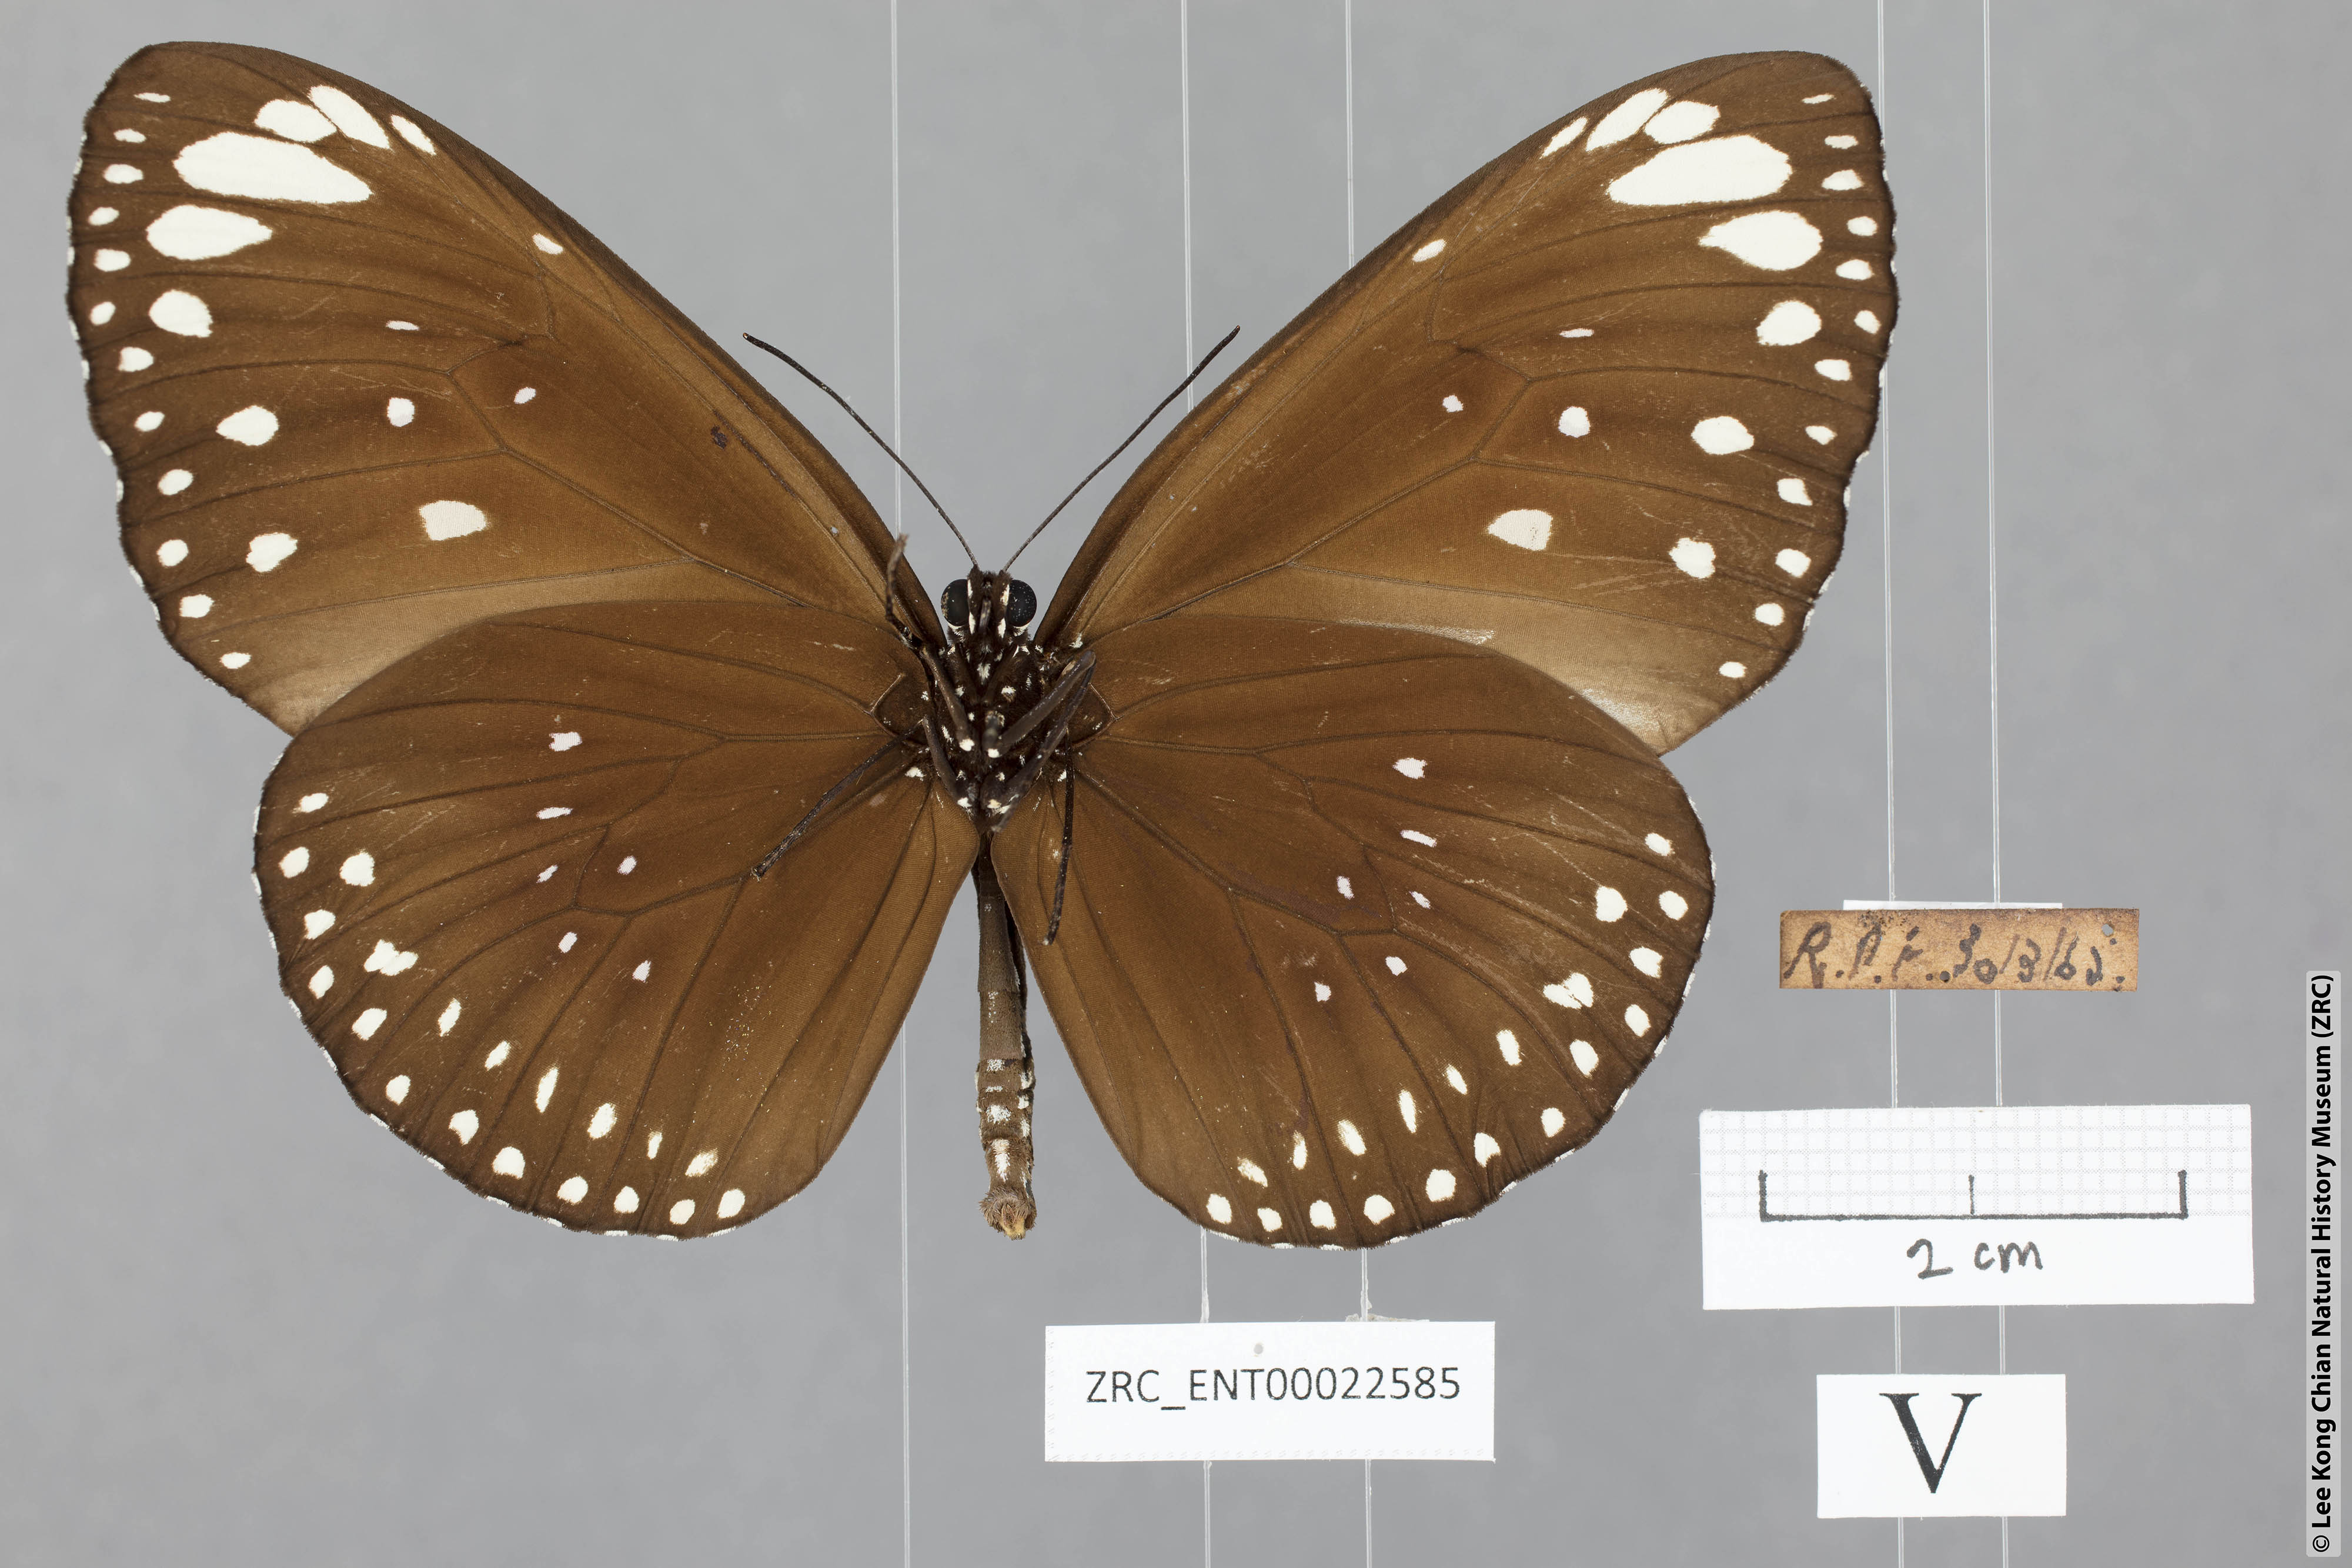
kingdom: Animalia
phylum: Arthropoda
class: Insecta
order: Lepidoptera
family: Nymphalidae
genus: Euploea
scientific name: Euploea crameri
